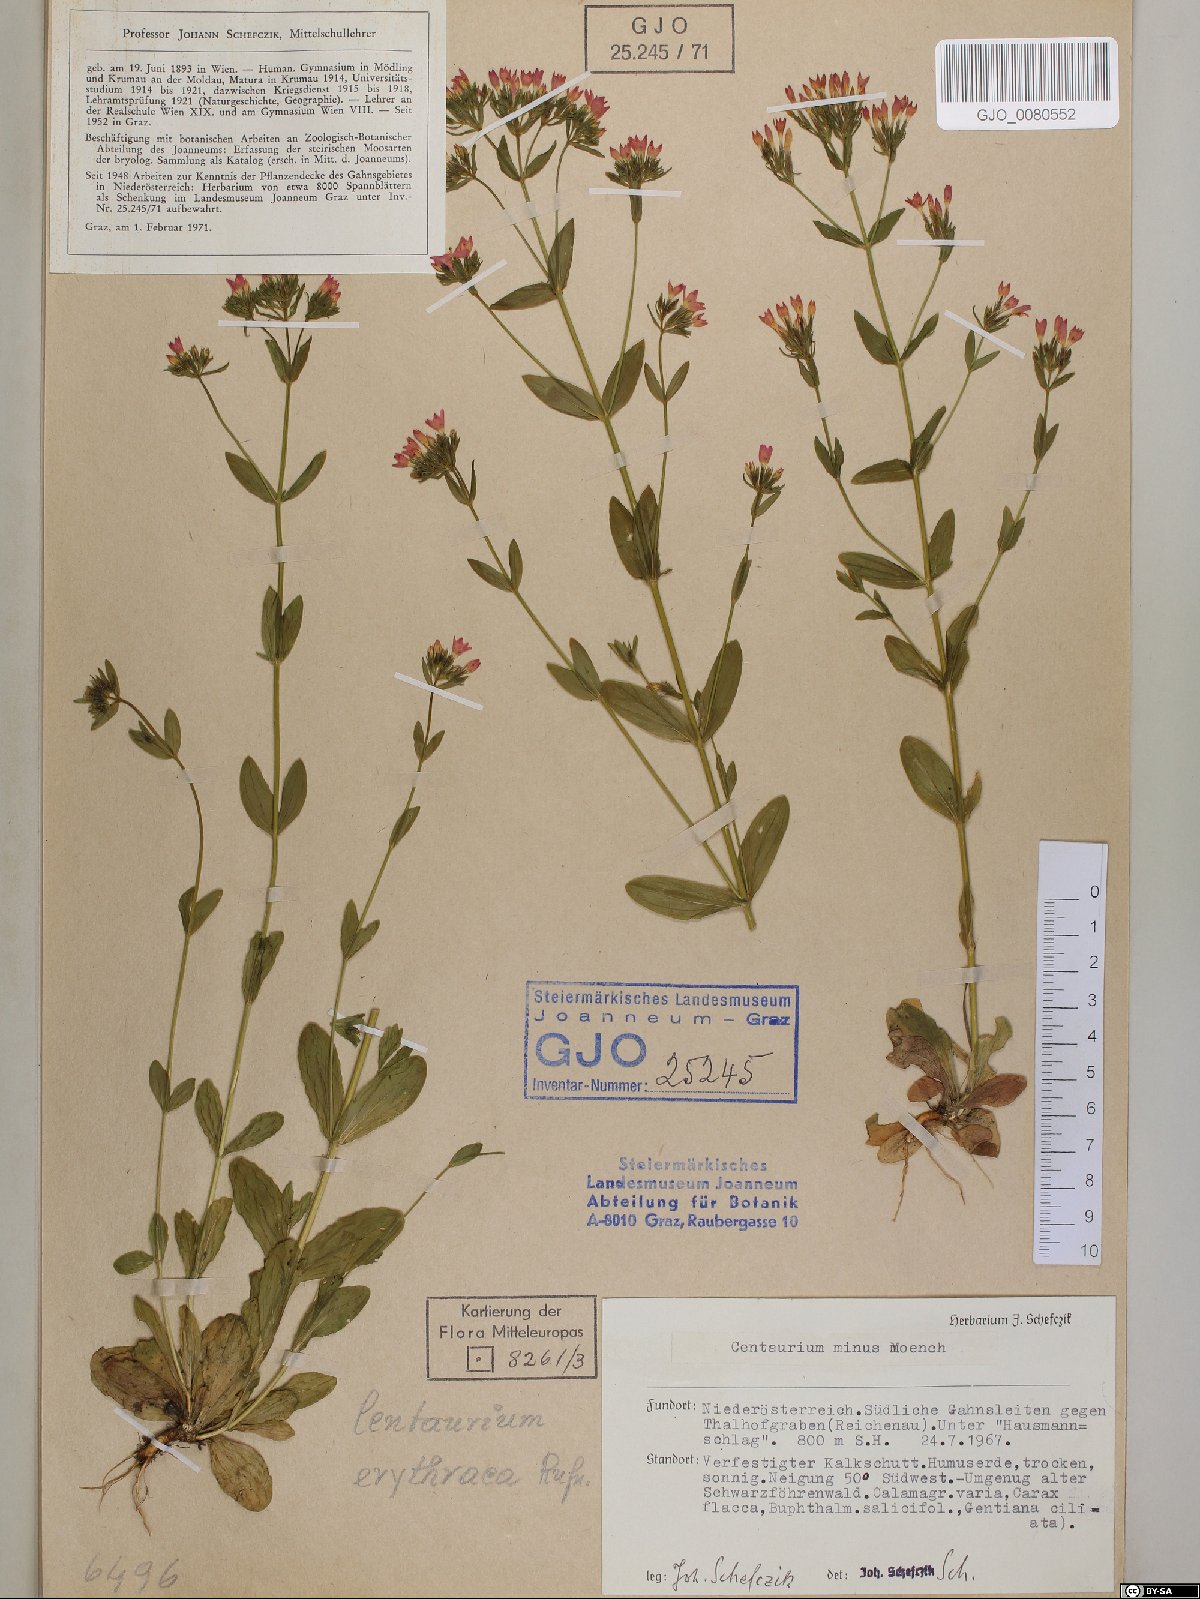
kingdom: Plantae
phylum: Tracheophyta
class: Magnoliopsida
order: Gentianales
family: Gentianaceae
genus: Centaurium
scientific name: Centaurium erythraea
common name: Common centaury
